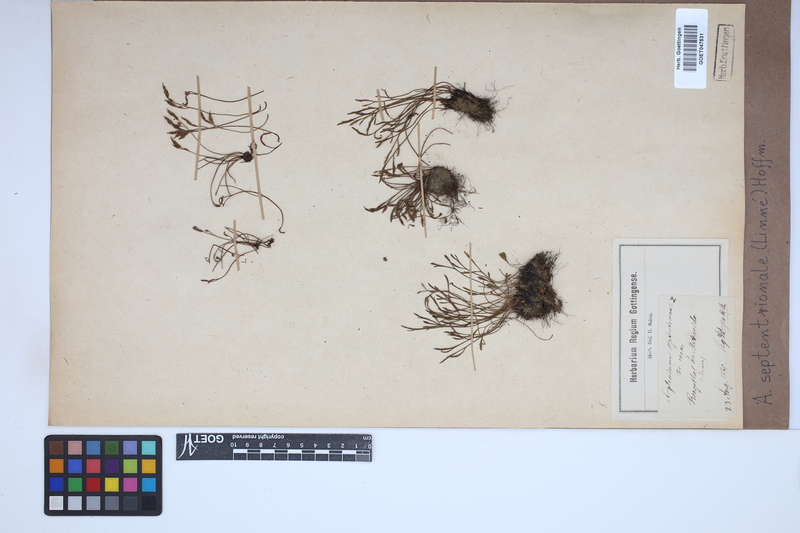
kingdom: Plantae
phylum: Tracheophyta
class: Polypodiopsida
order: Polypodiales
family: Aspleniaceae
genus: Asplenium
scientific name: Asplenium septentrionale
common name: Forked spleenwort
